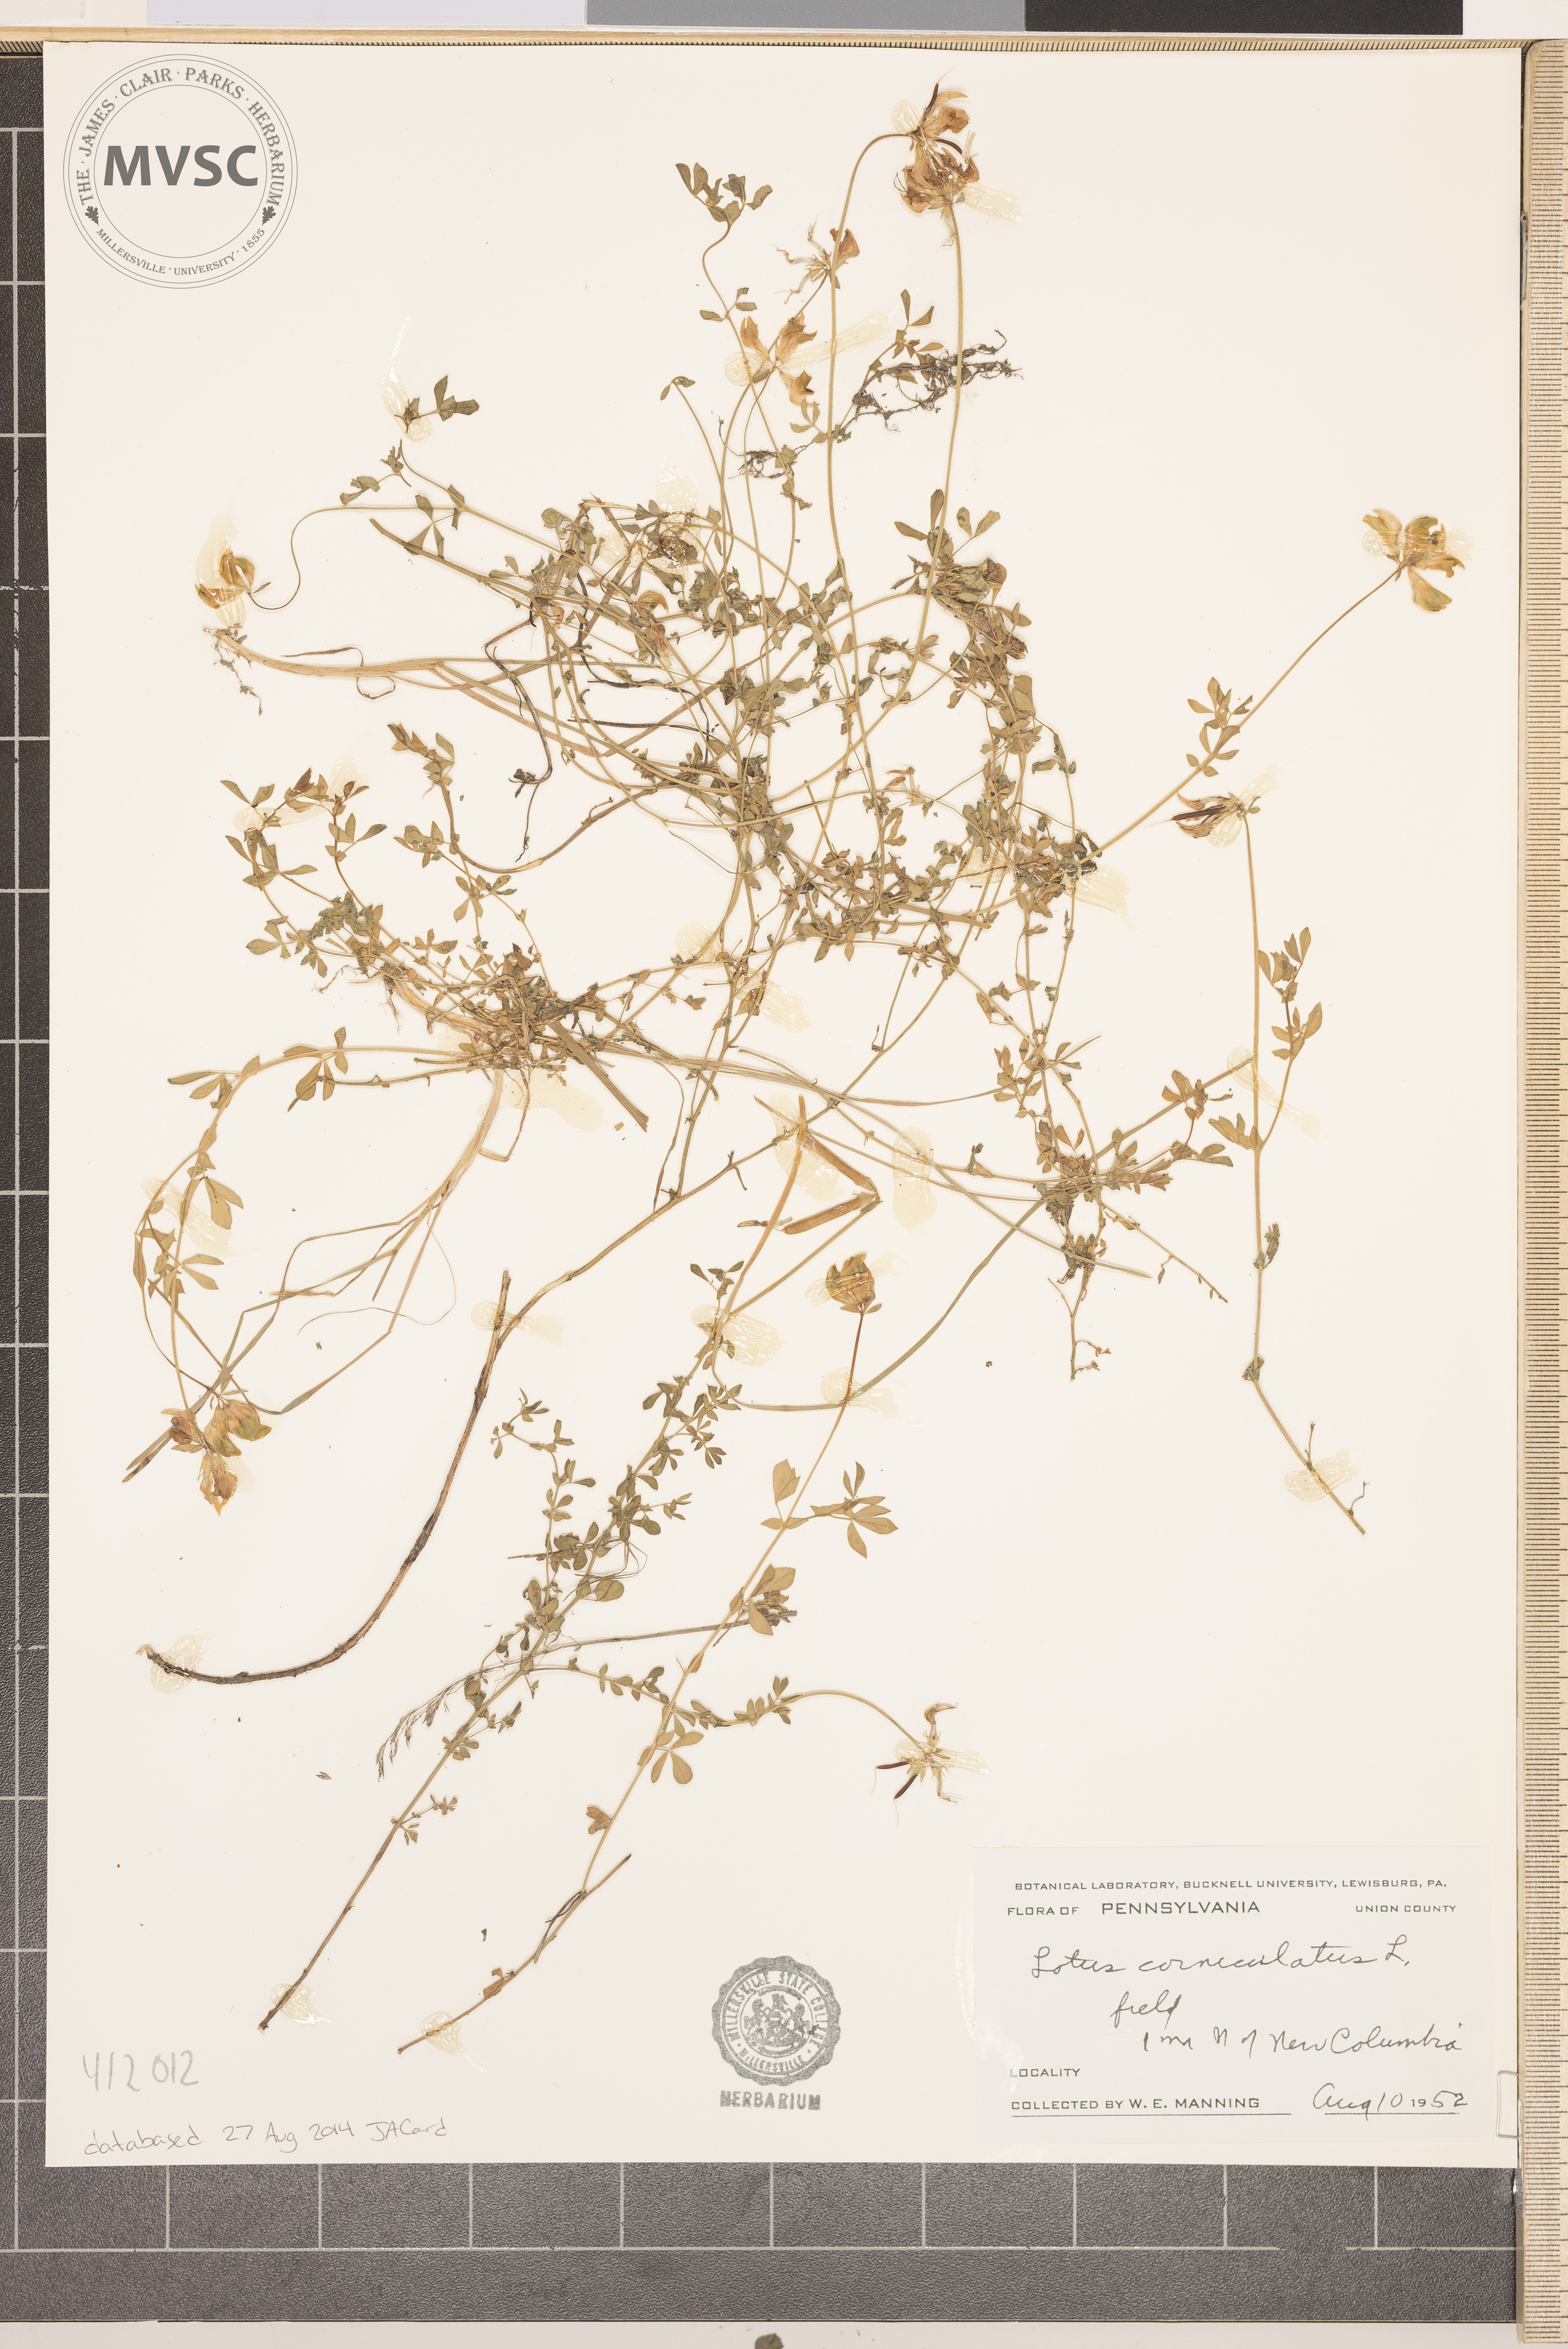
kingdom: Plantae
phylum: Tracheophyta
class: Magnoliopsida
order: Fabales
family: Fabaceae
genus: Lotus
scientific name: Lotus corniculatus
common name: Common bird's-foot-trefoil
